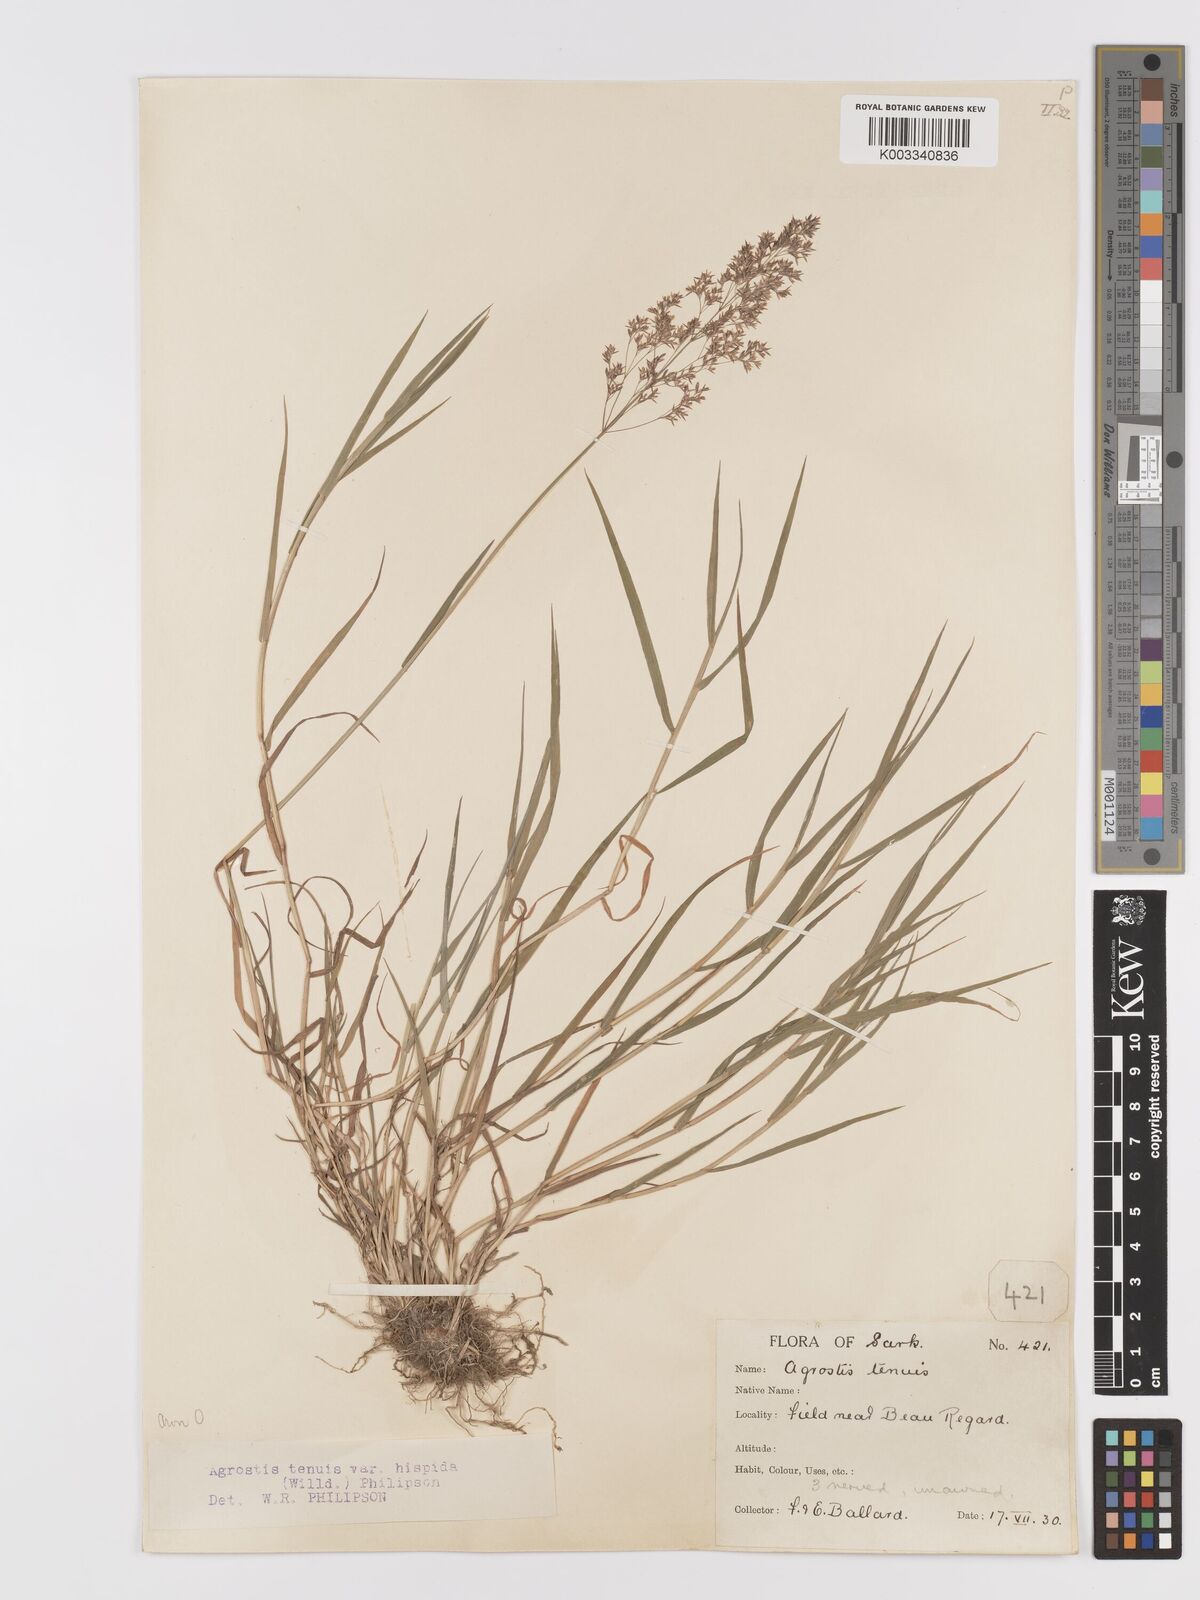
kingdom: Plantae
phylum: Tracheophyta
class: Liliopsida
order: Poales
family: Poaceae
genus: Agrostis
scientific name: Agrostis capillaris
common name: Colonial bentgrass
